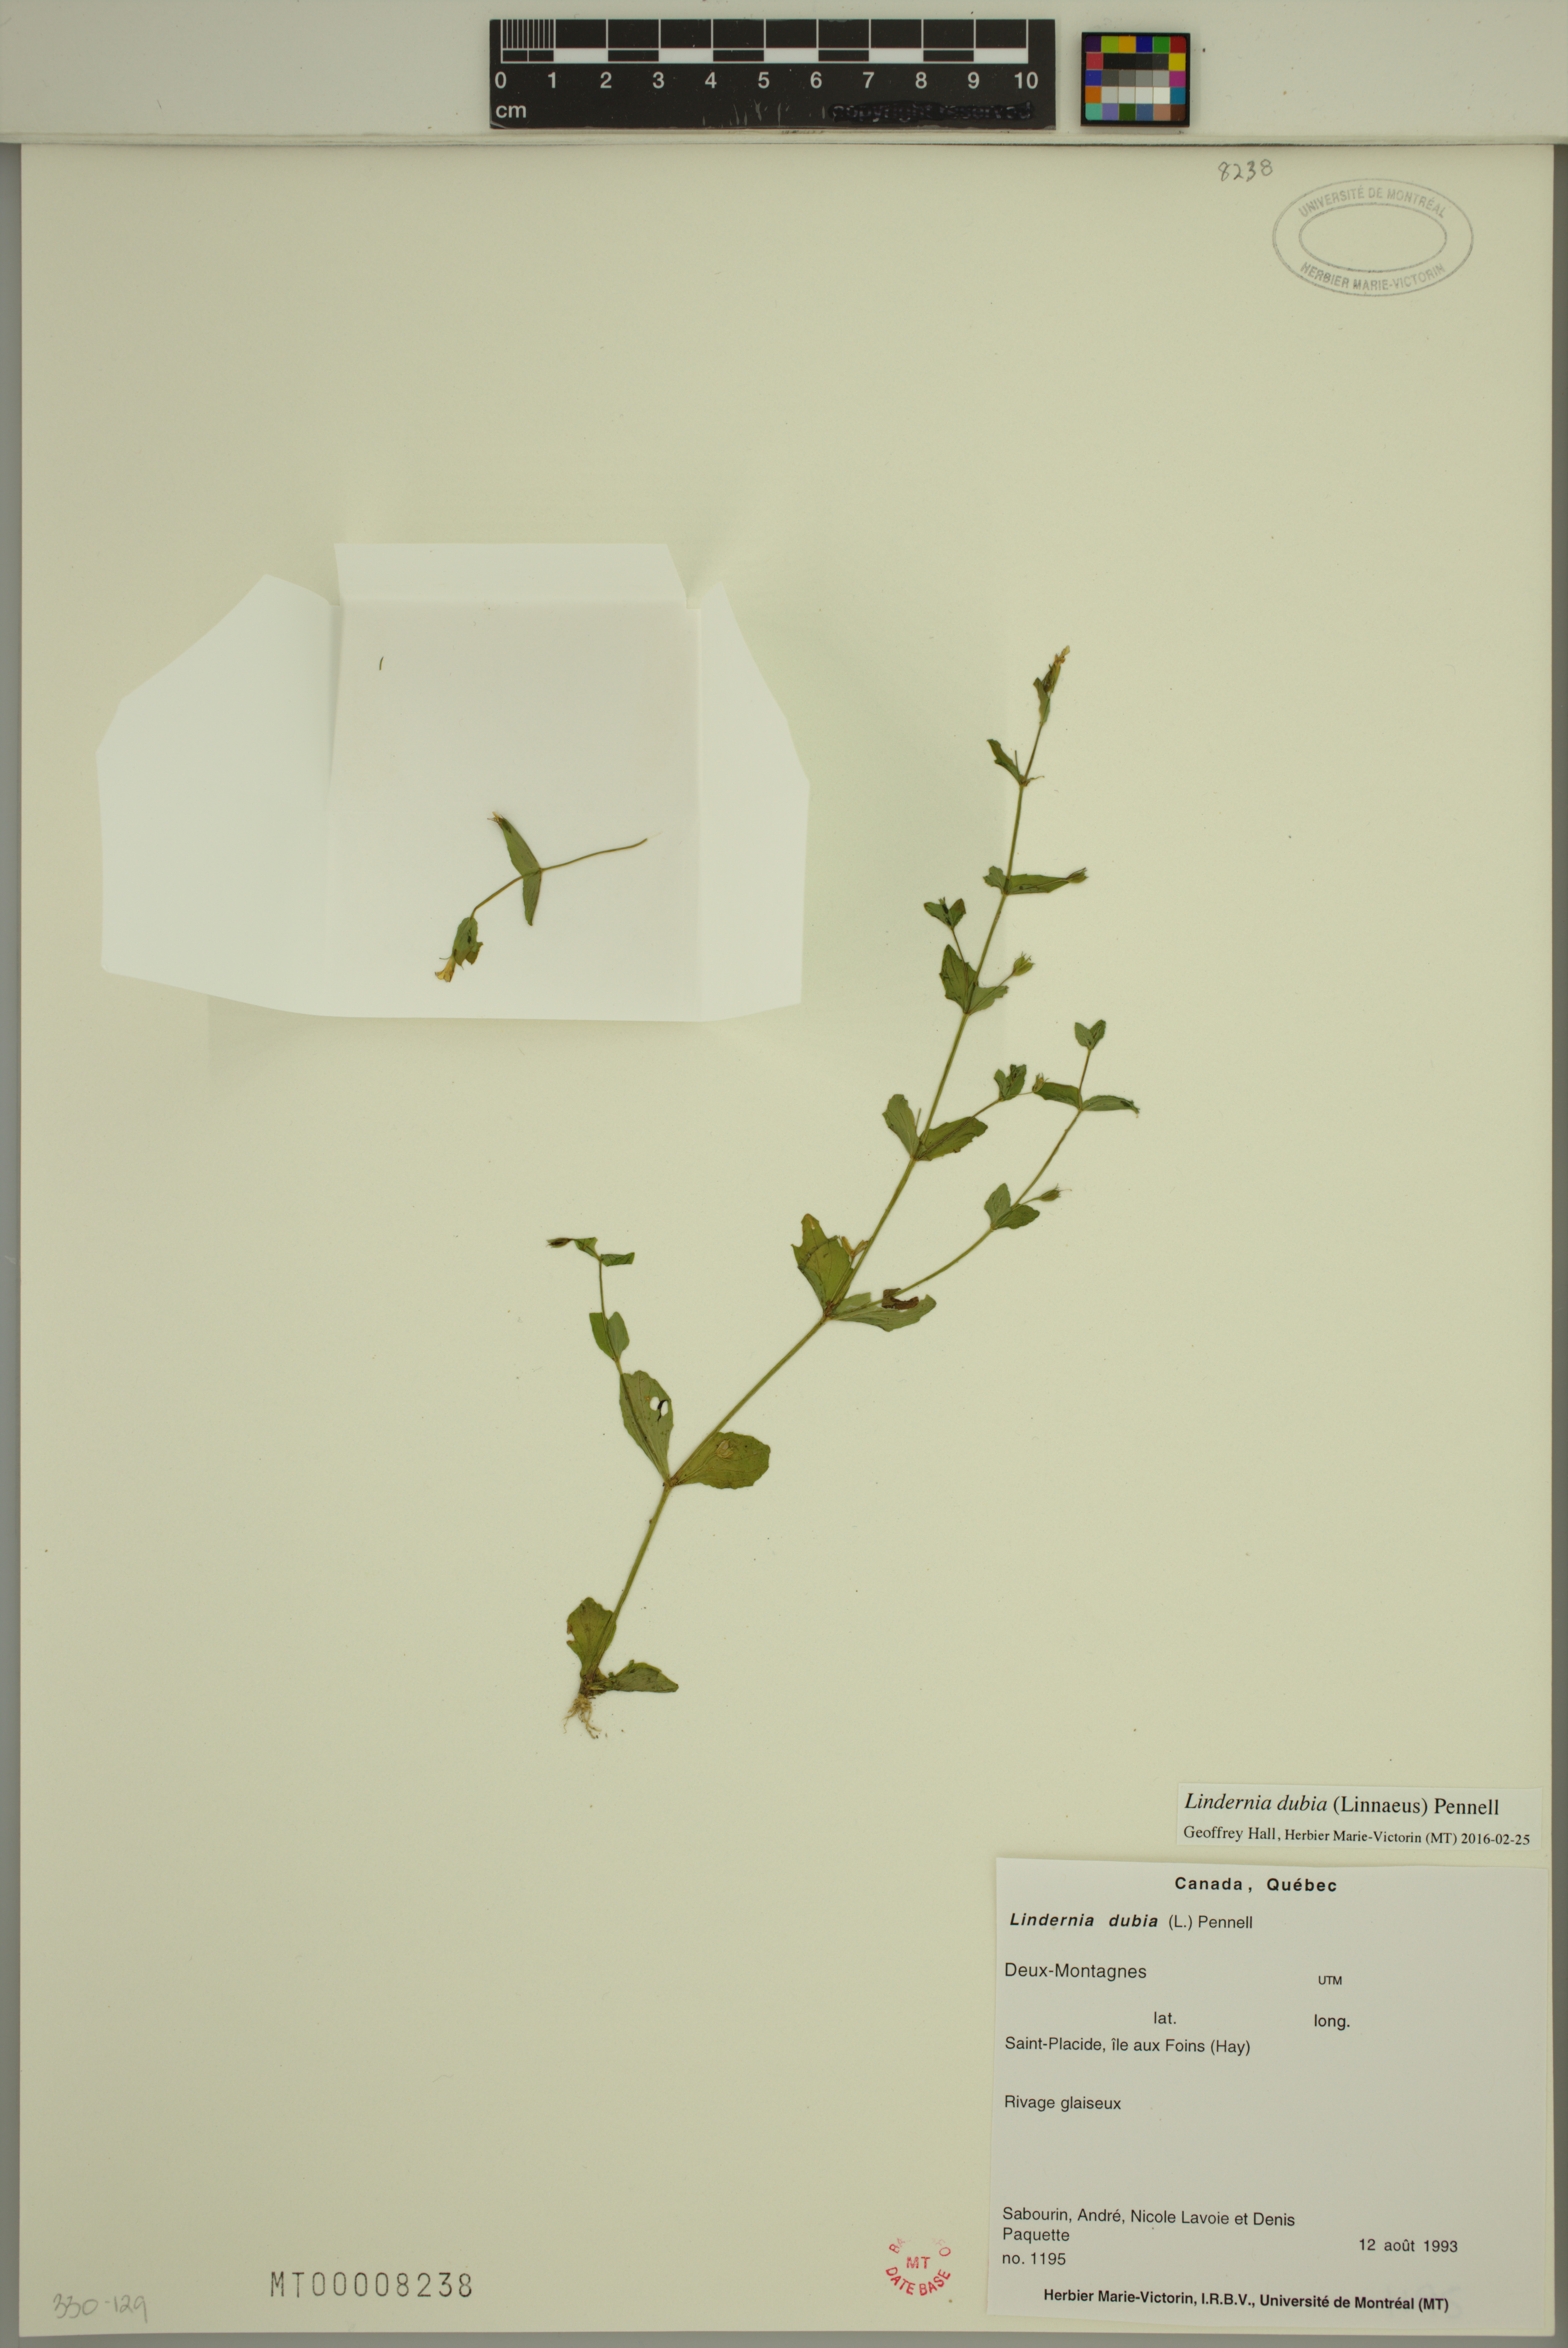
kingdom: Plantae
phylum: Tracheophyta
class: Magnoliopsida
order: Lamiales
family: Linderniaceae
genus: Lindernia
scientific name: Lindernia dubia
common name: Annual false pimpernel
